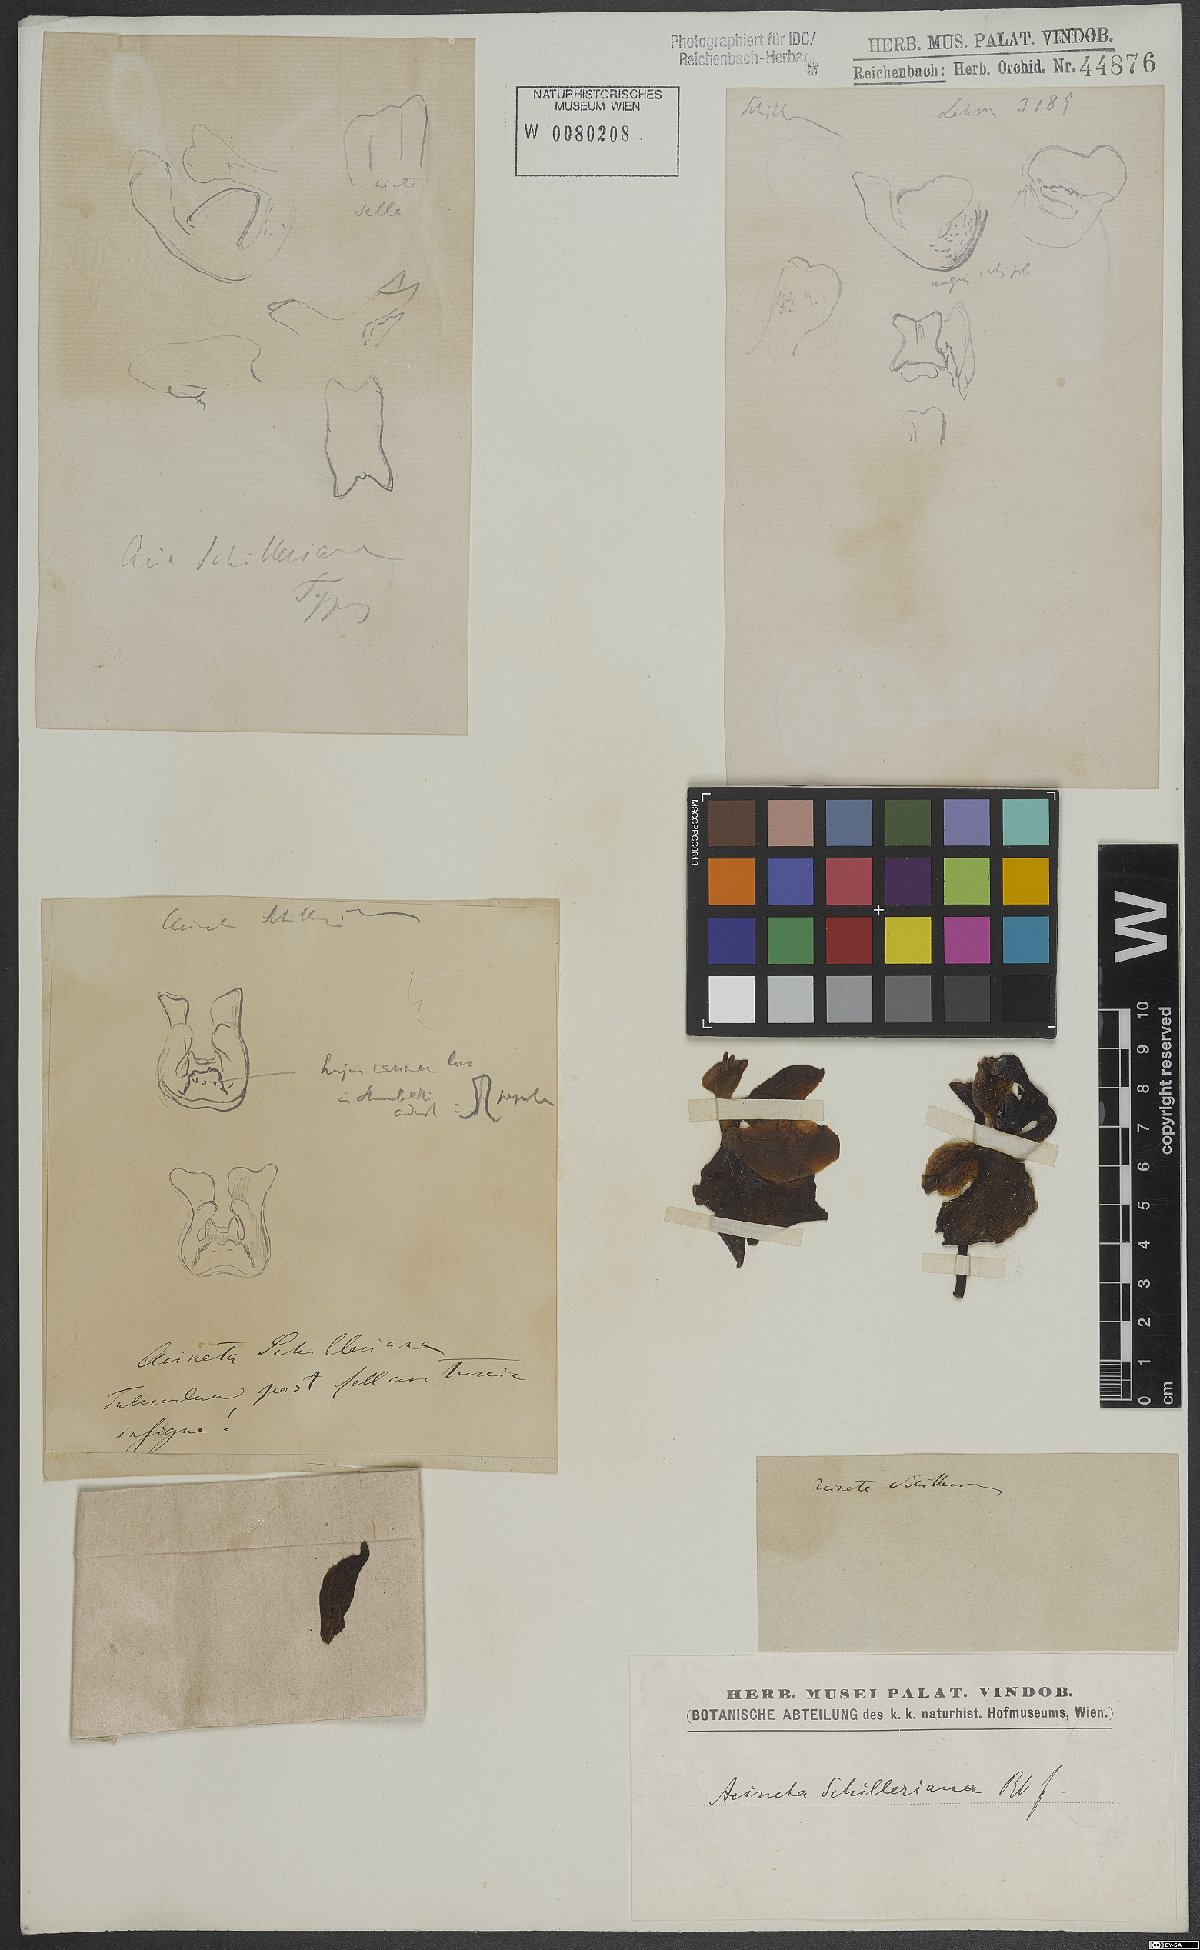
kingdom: Plantae
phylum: Tracheophyta
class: Liliopsida
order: Asparagales
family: Orchidaceae
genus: Acineta
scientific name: Acineta superba
